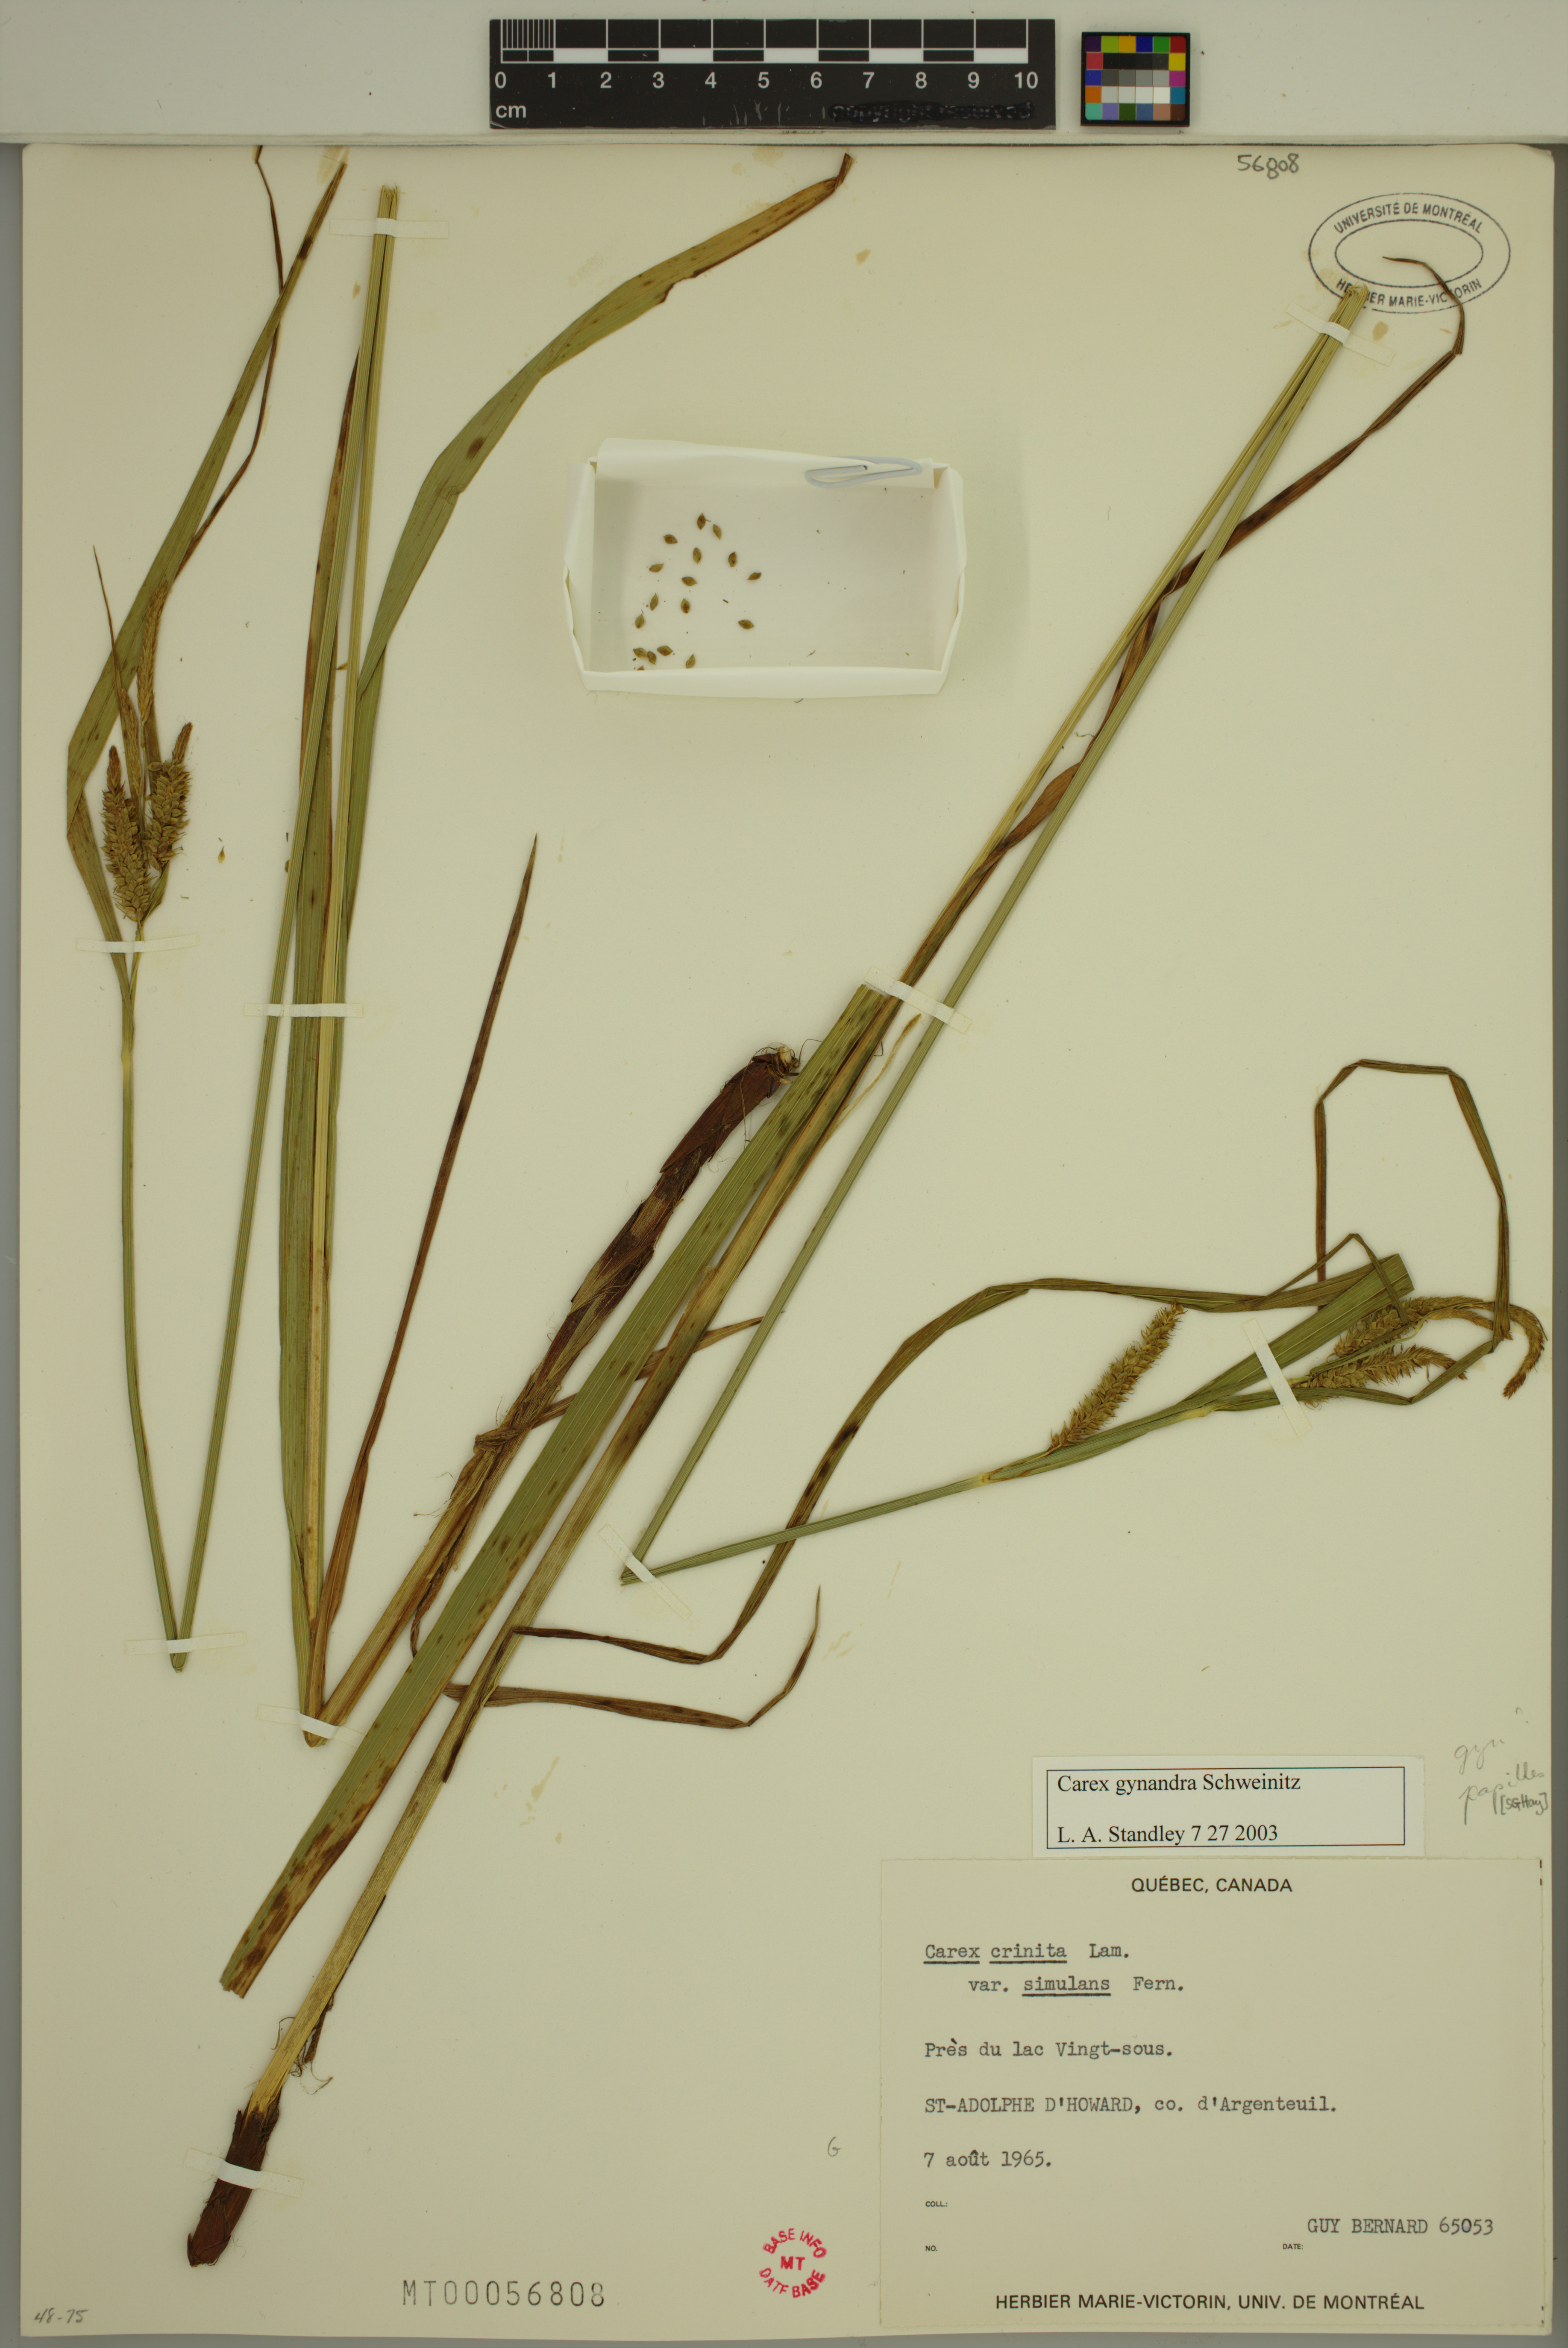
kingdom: Plantae
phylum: Tracheophyta
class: Liliopsida
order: Poales
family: Cyperaceae
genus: Carex
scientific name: Carex gynandra
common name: Nodding sedge
